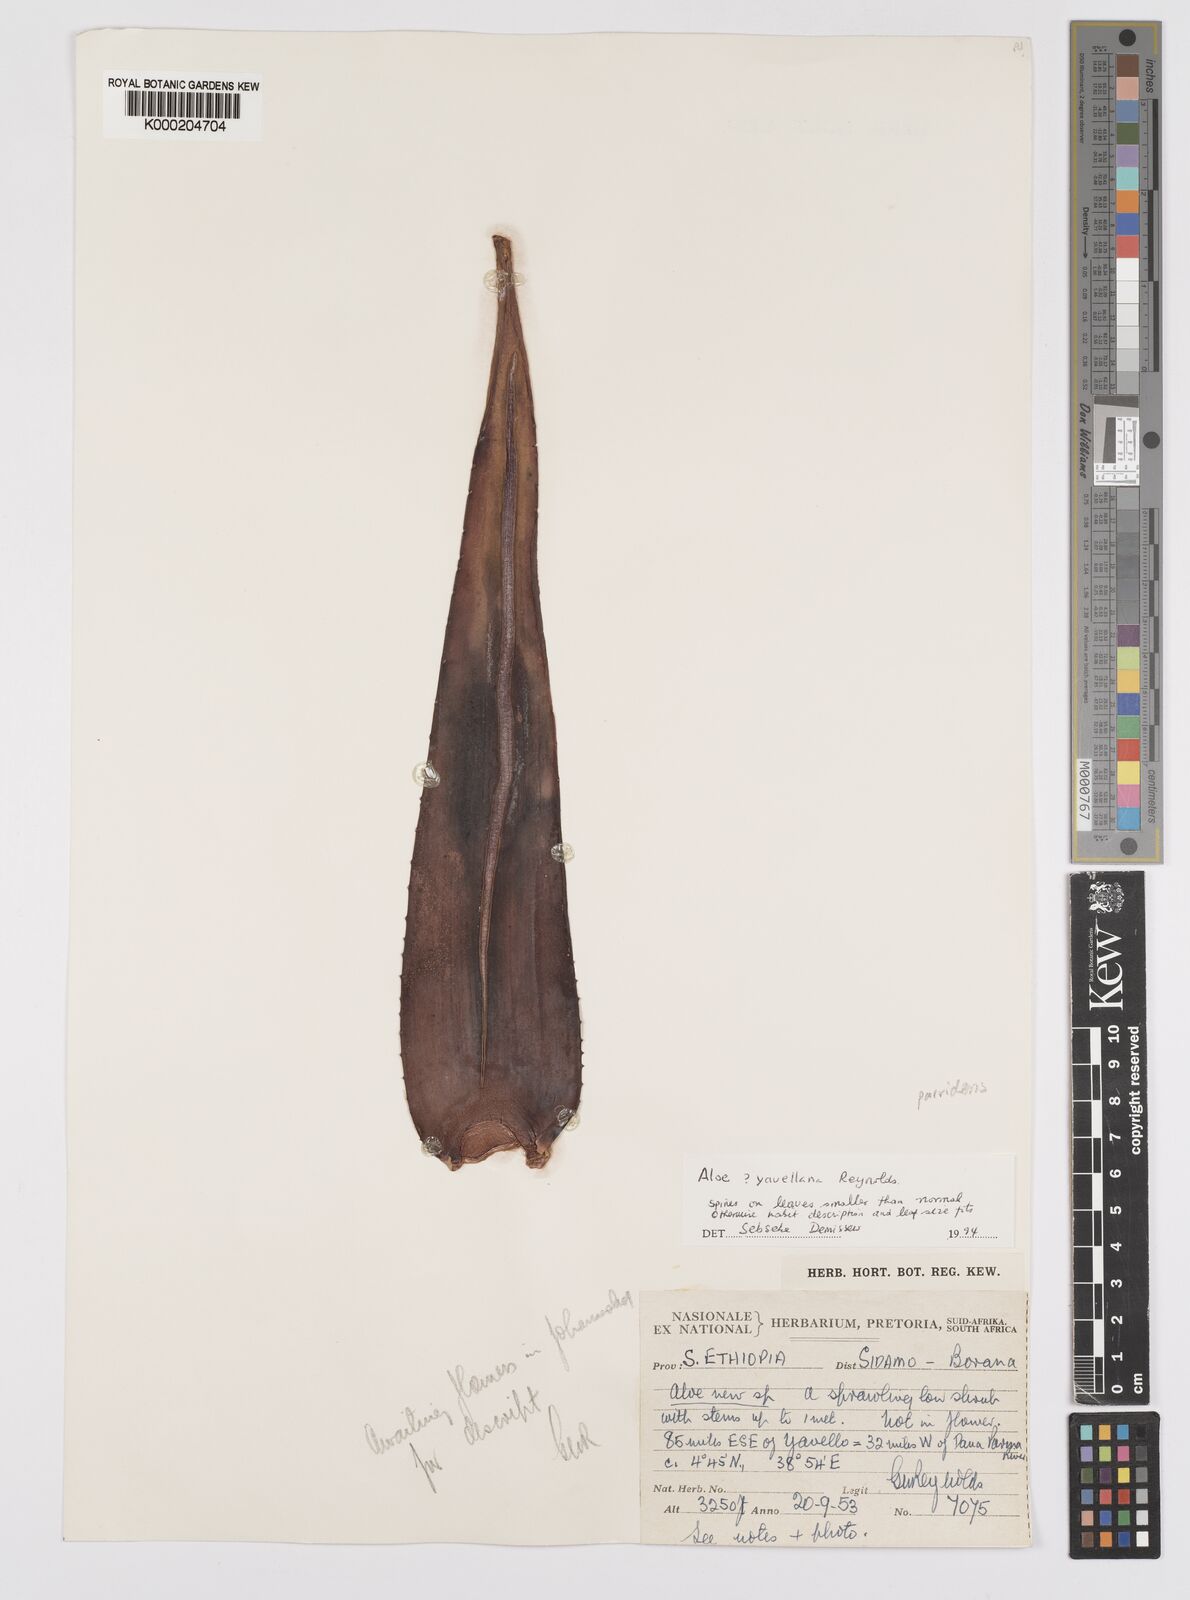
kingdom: Plantae
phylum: Tracheophyta
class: Liliopsida
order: Asparagales
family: Asphodelaceae
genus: Aloe
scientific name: Aloe parvidens
